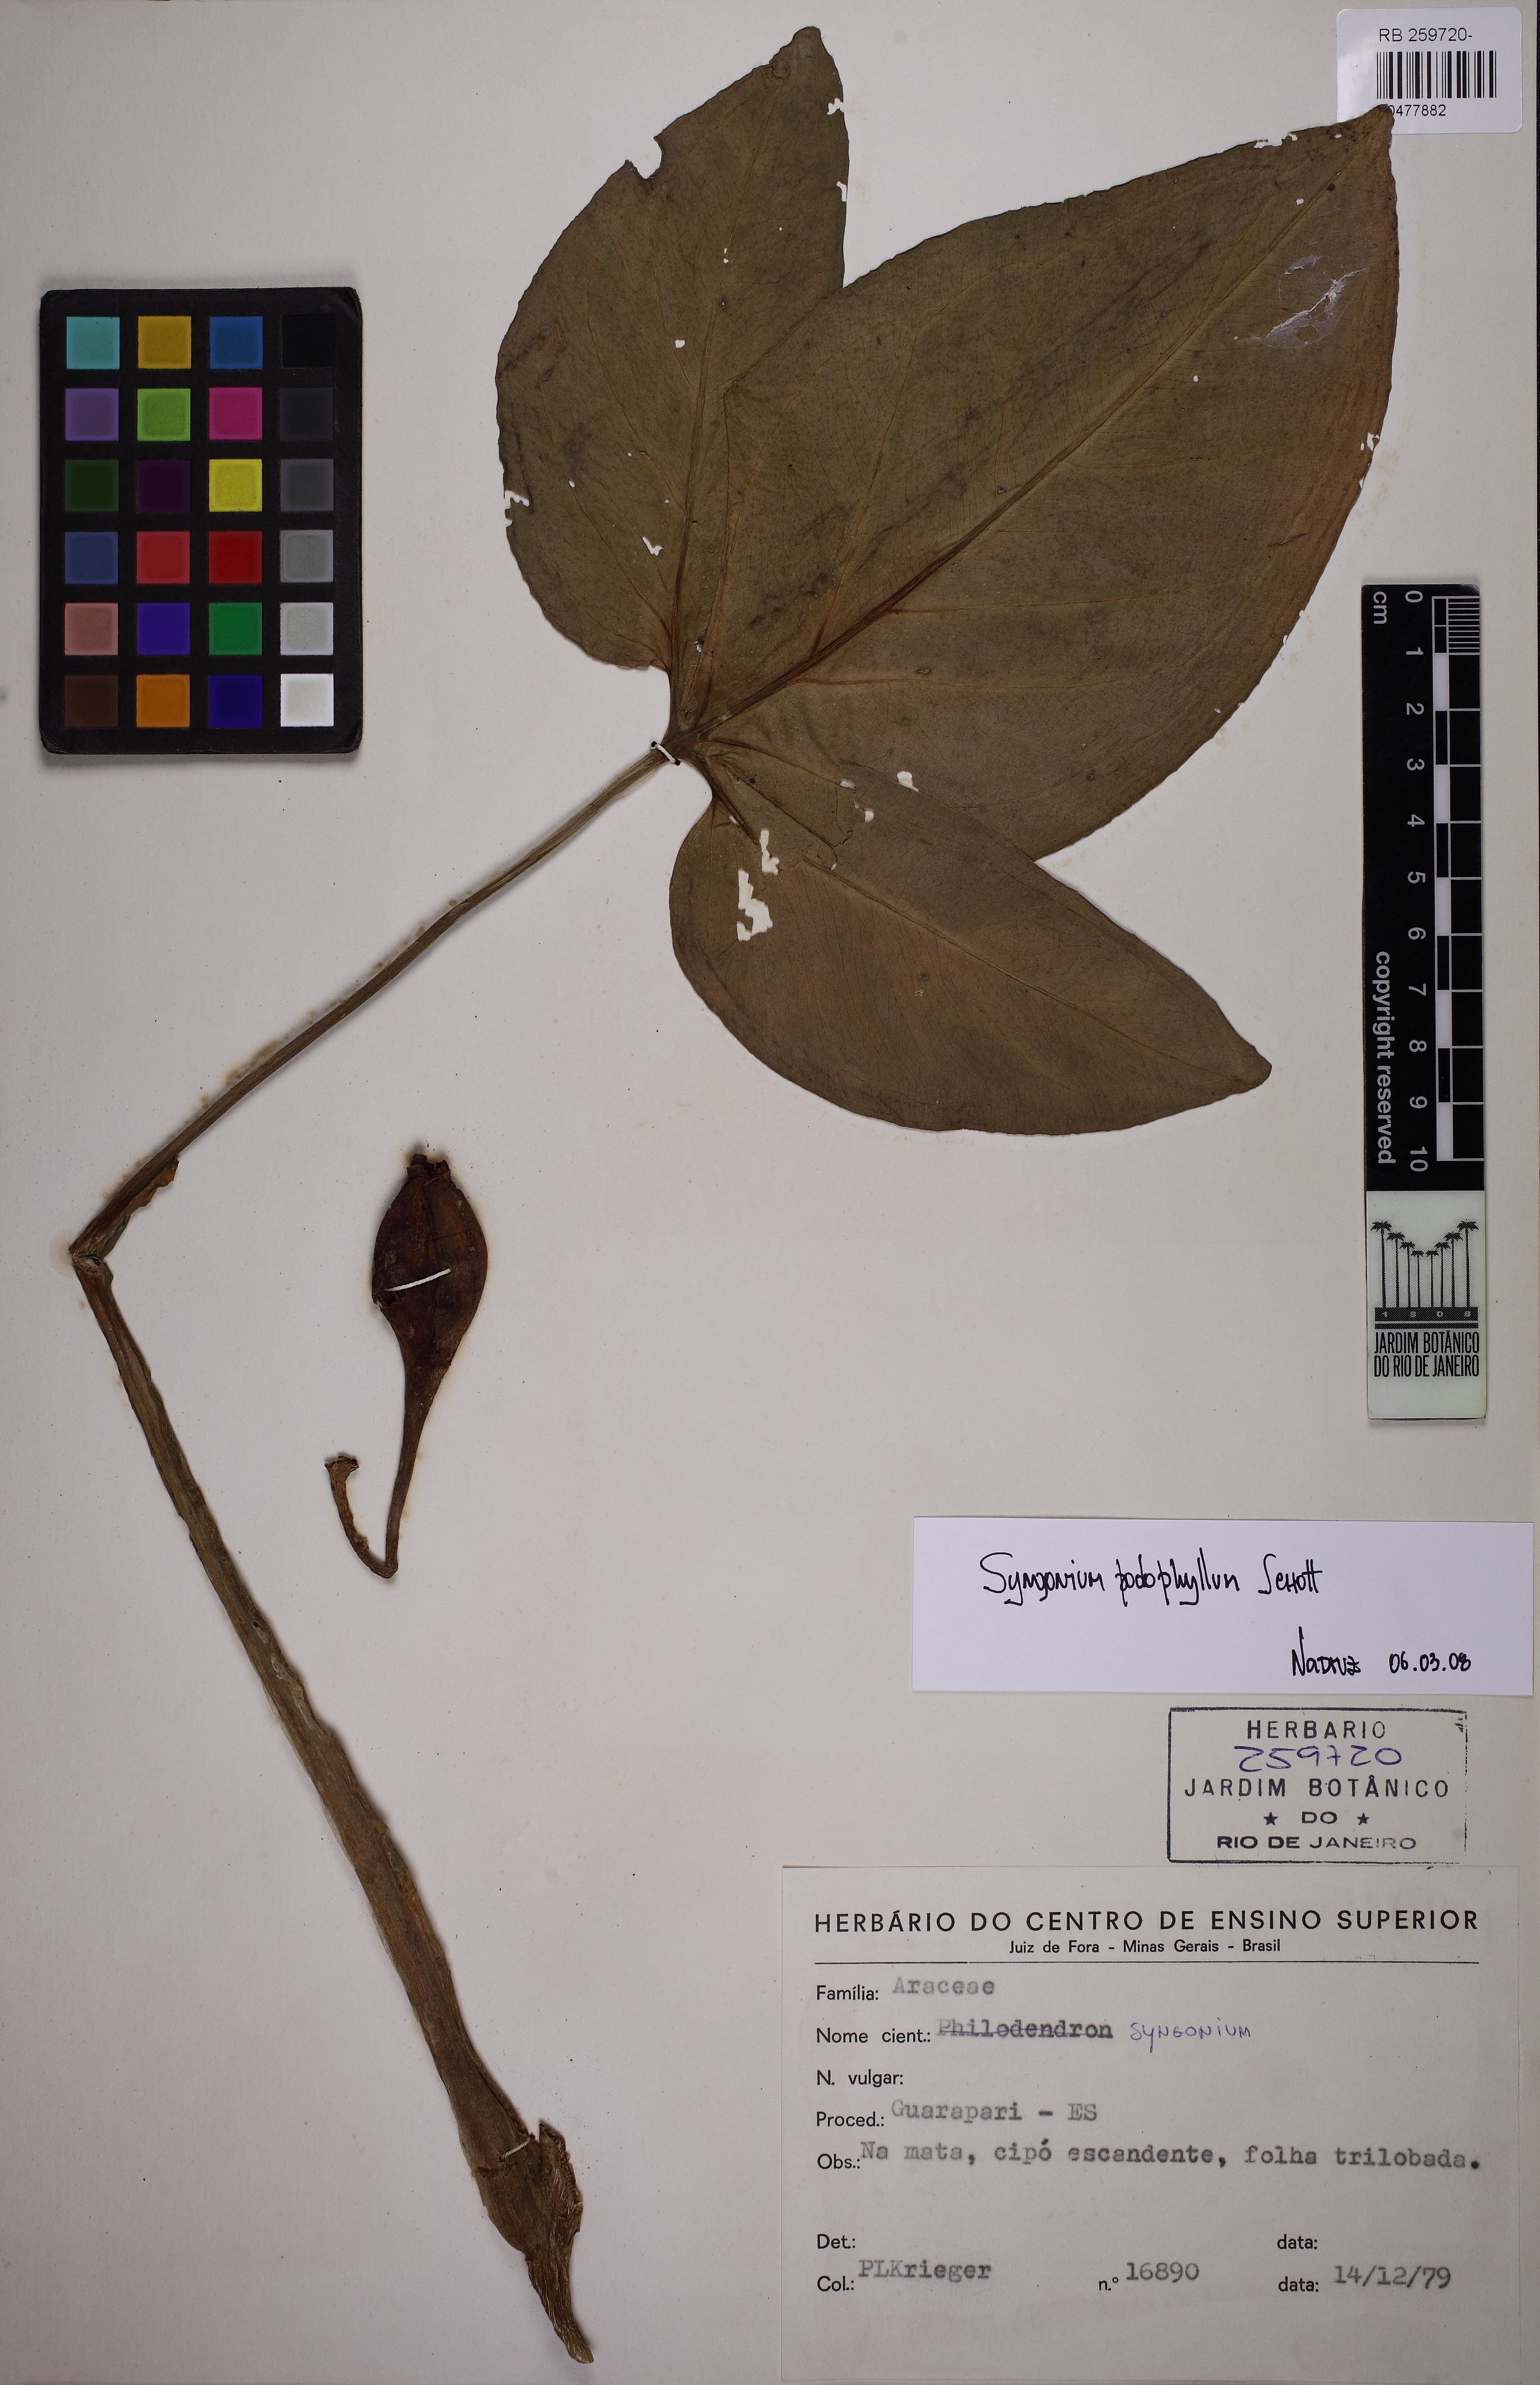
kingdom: Plantae
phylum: Tracheophyta
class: Liliopsida
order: Alismatales
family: Araceae
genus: Syngonium
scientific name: Syngonium podophyllum
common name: American evergreen
